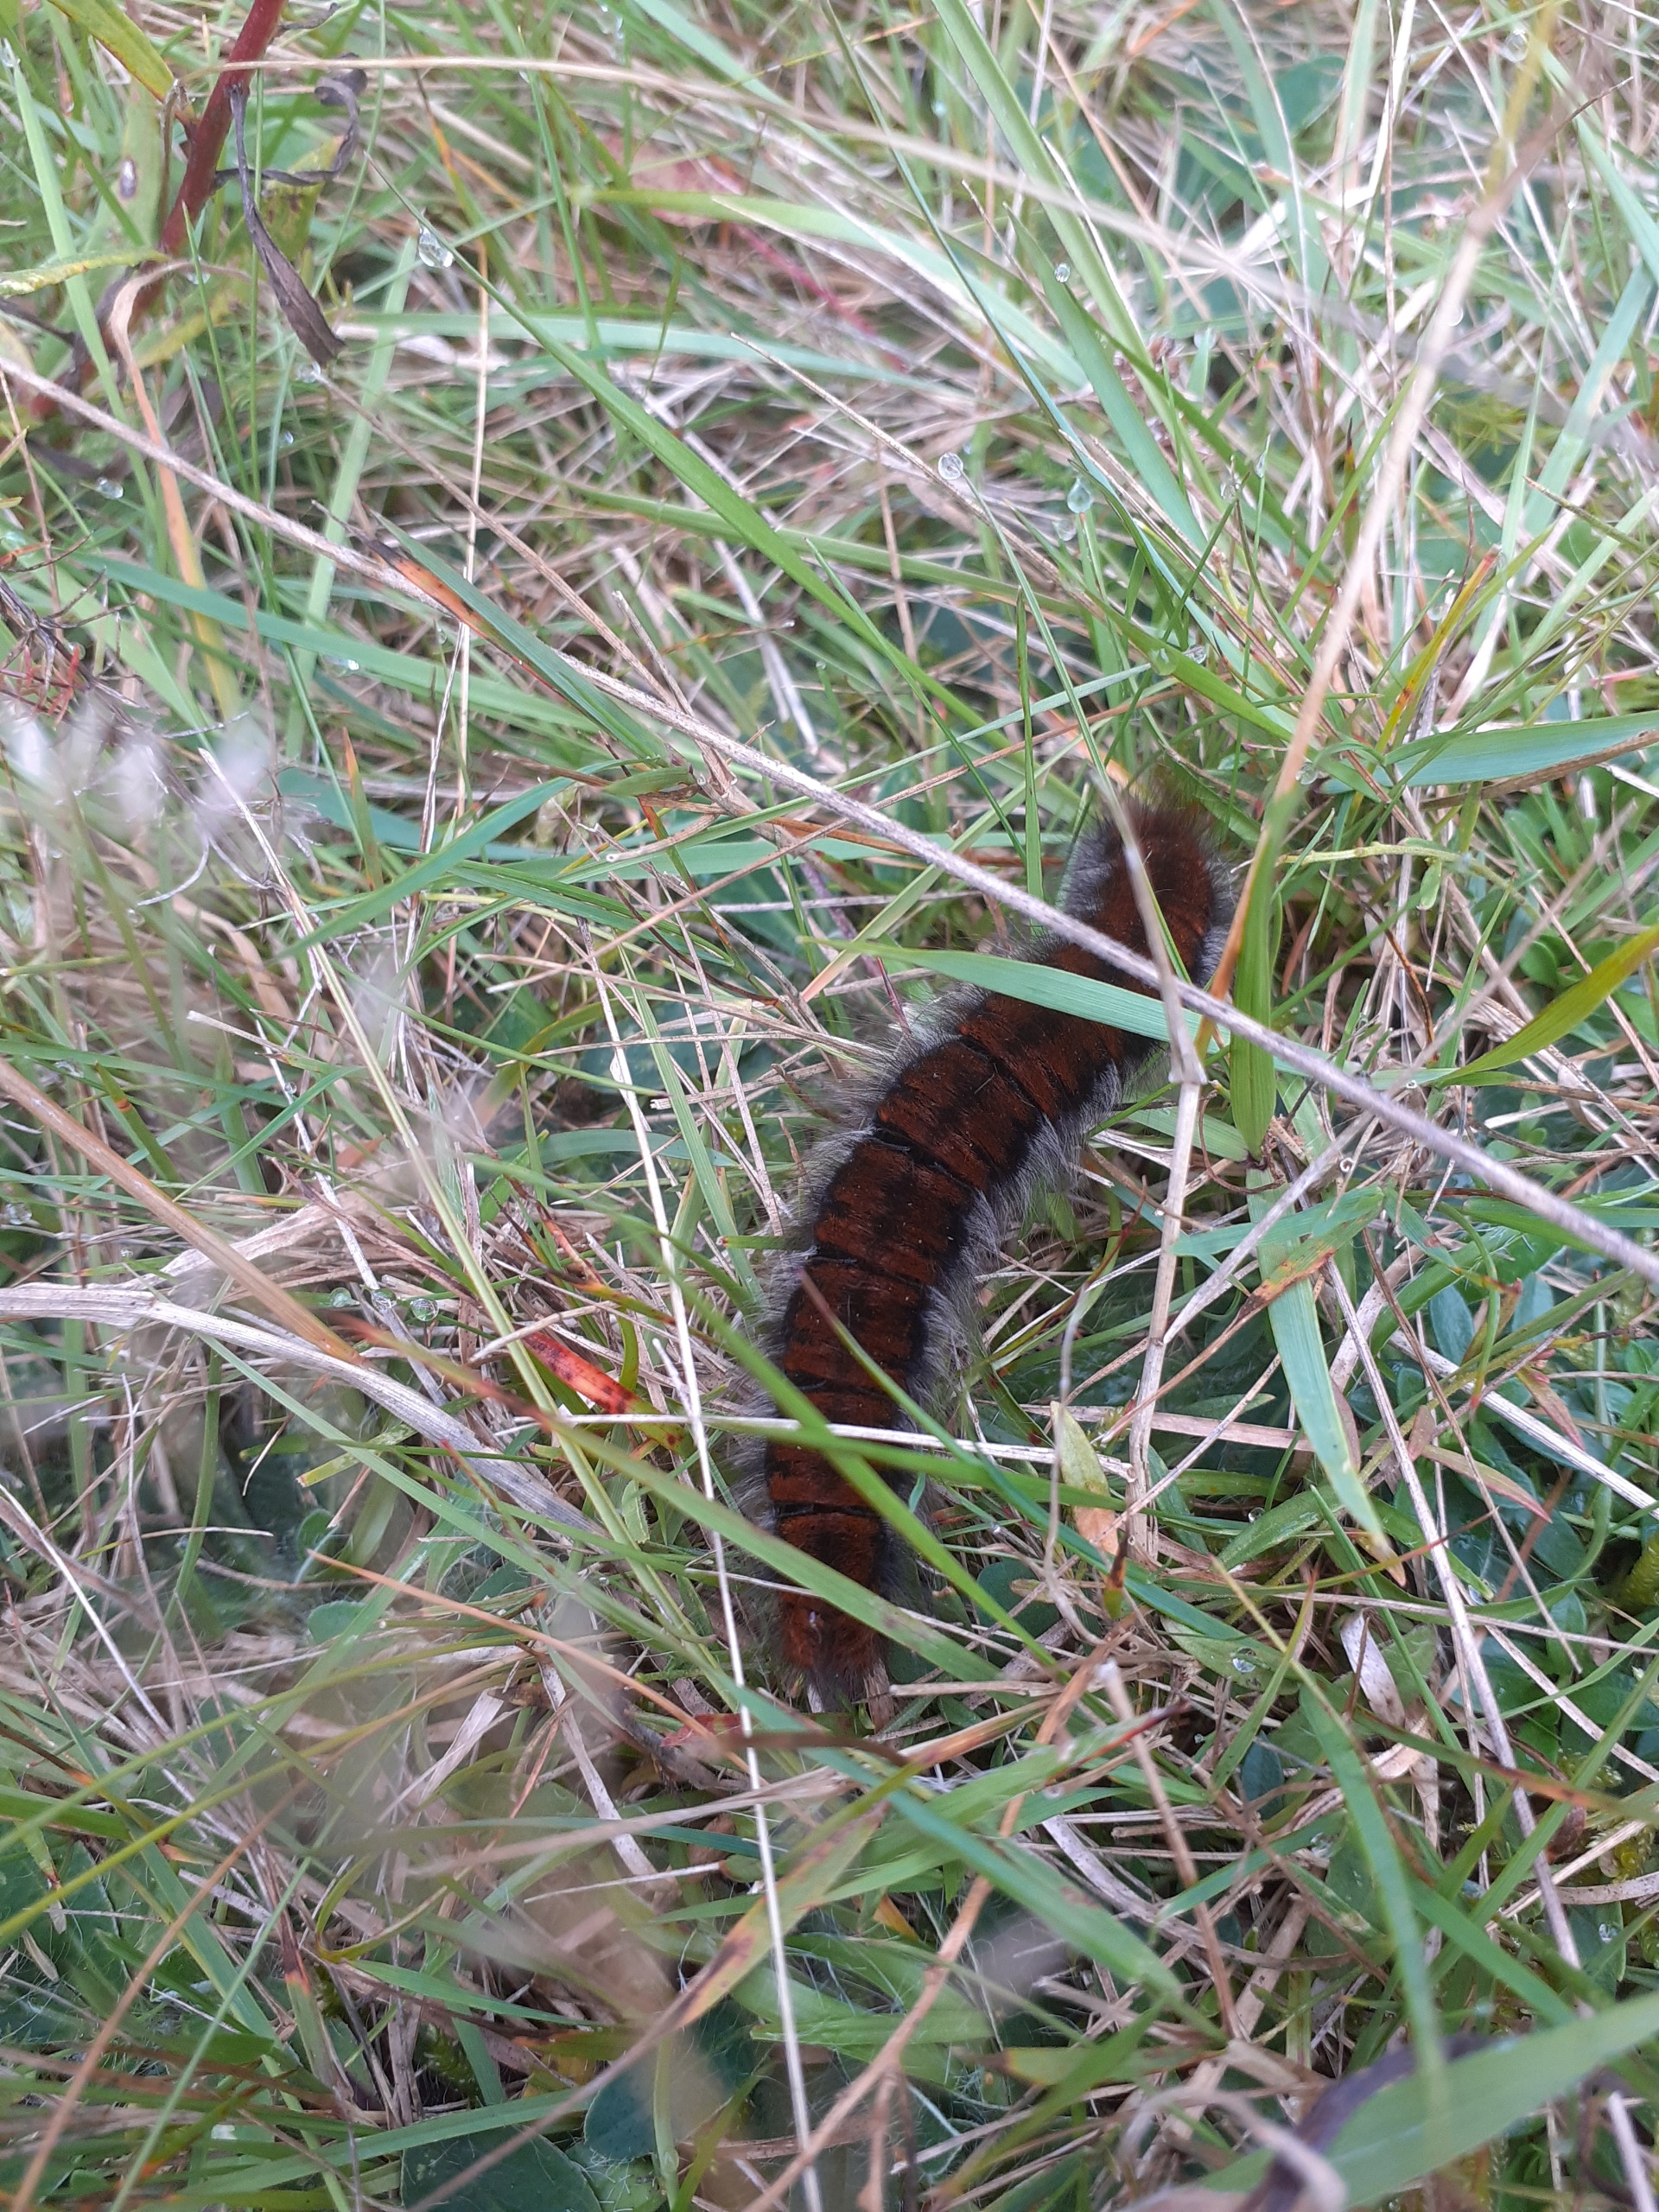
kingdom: Animalia
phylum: Arthropoda
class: Insecta
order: Lepidoptera
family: Lasiocampidae
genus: Macrothylacia
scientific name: Macrothylacia rubi
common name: Brombærspinder
